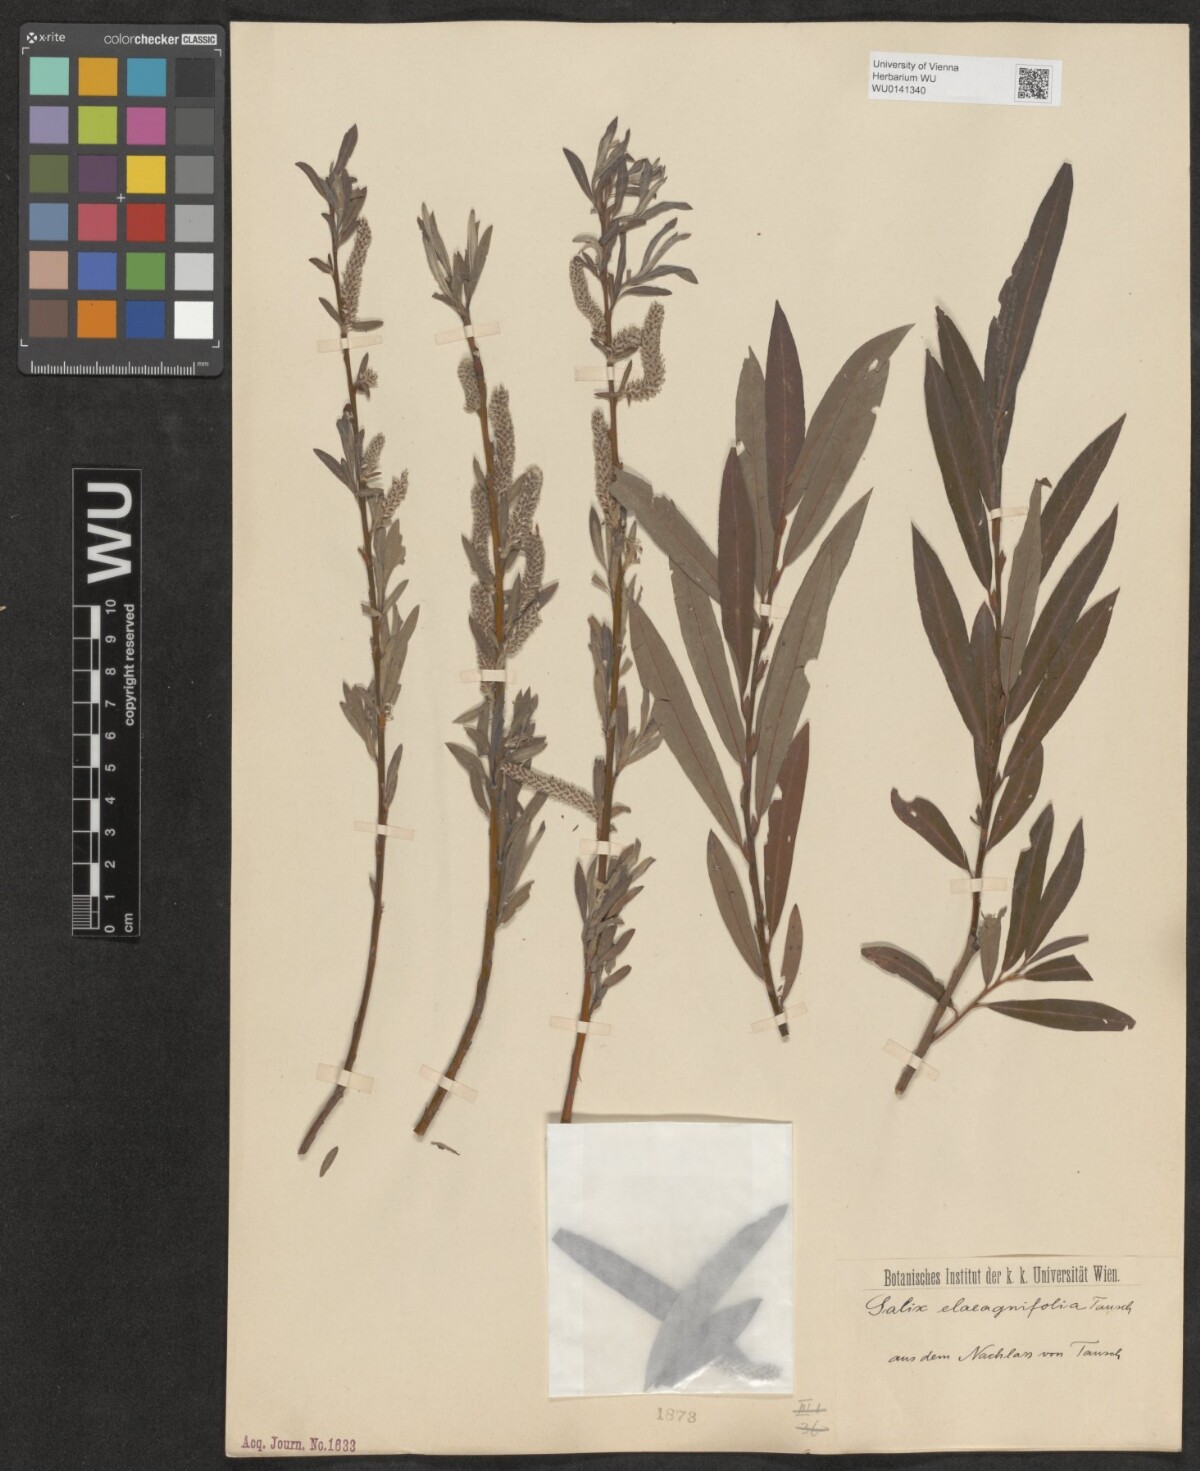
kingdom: Plantae
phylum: Tracheophyta
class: Magnoliopsida
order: Malpighiales
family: Salicaceae
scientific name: Salicaceae
